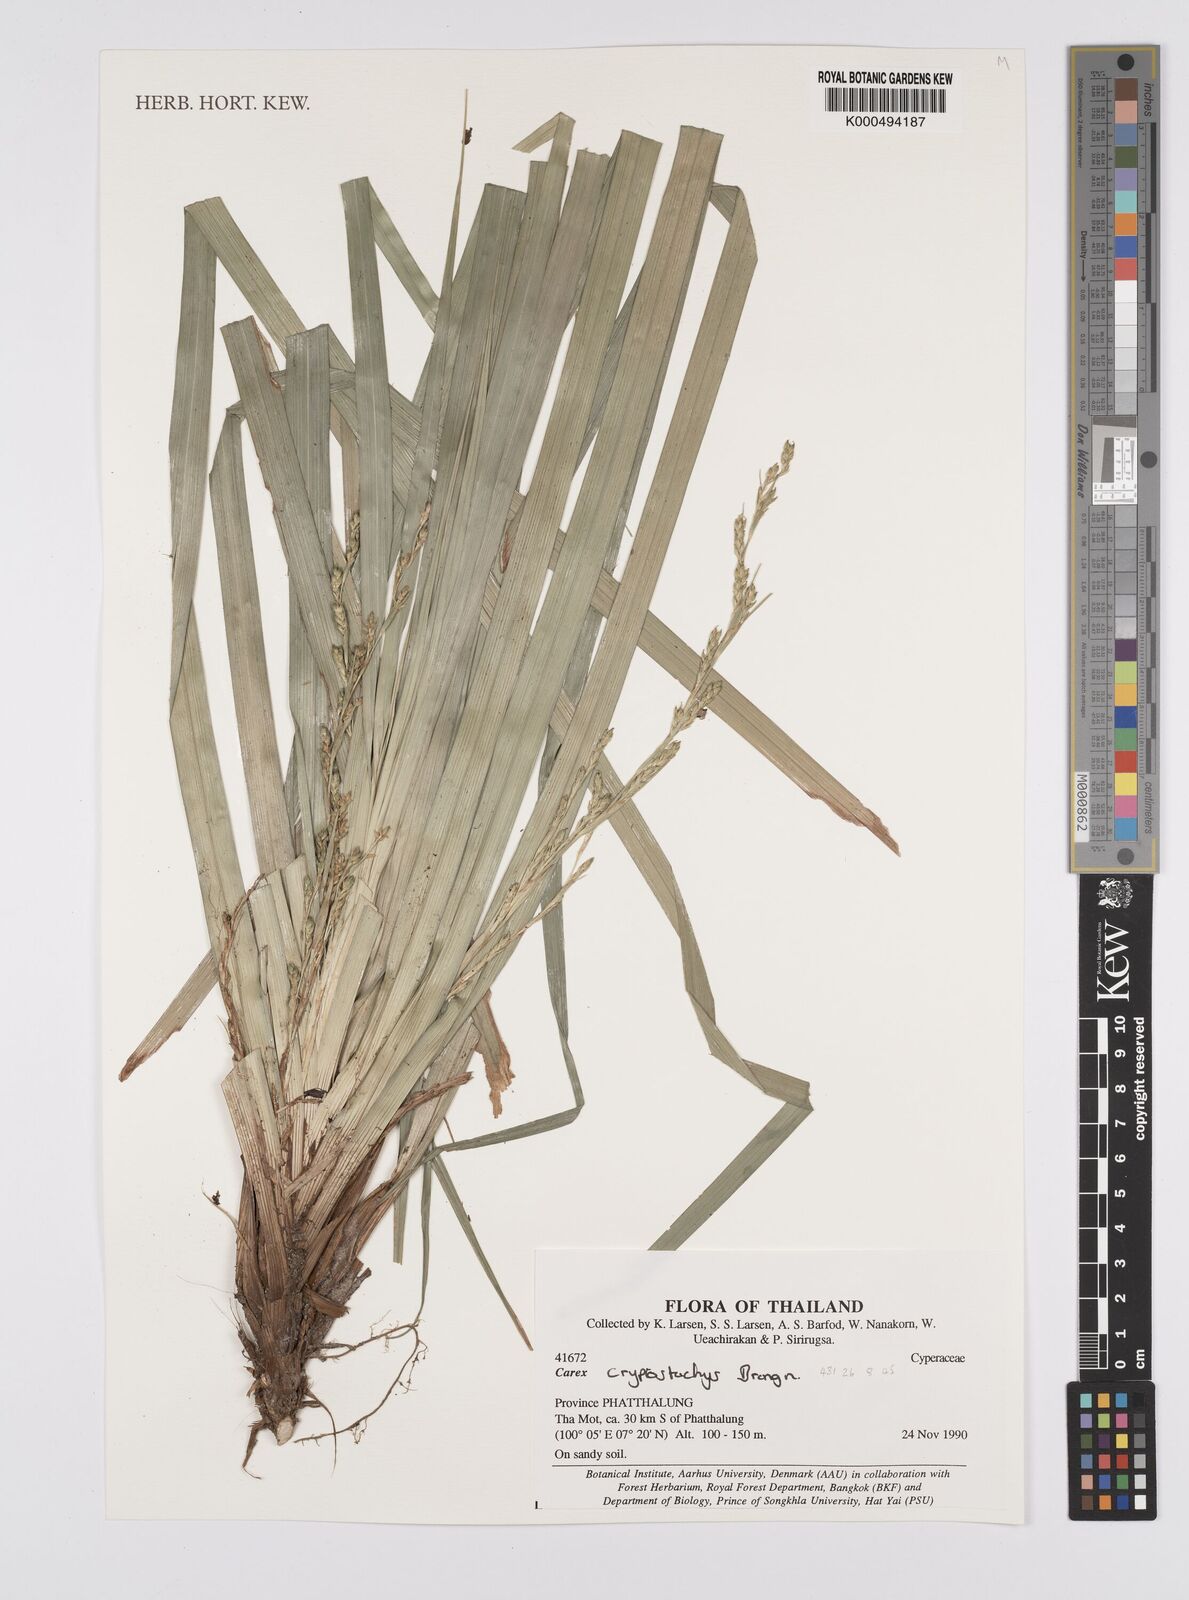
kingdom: Plantae
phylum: Tracheophyta
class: Liliopsida
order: Poales
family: Cyperaceae
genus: Carex
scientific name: Carex cryptostachys
